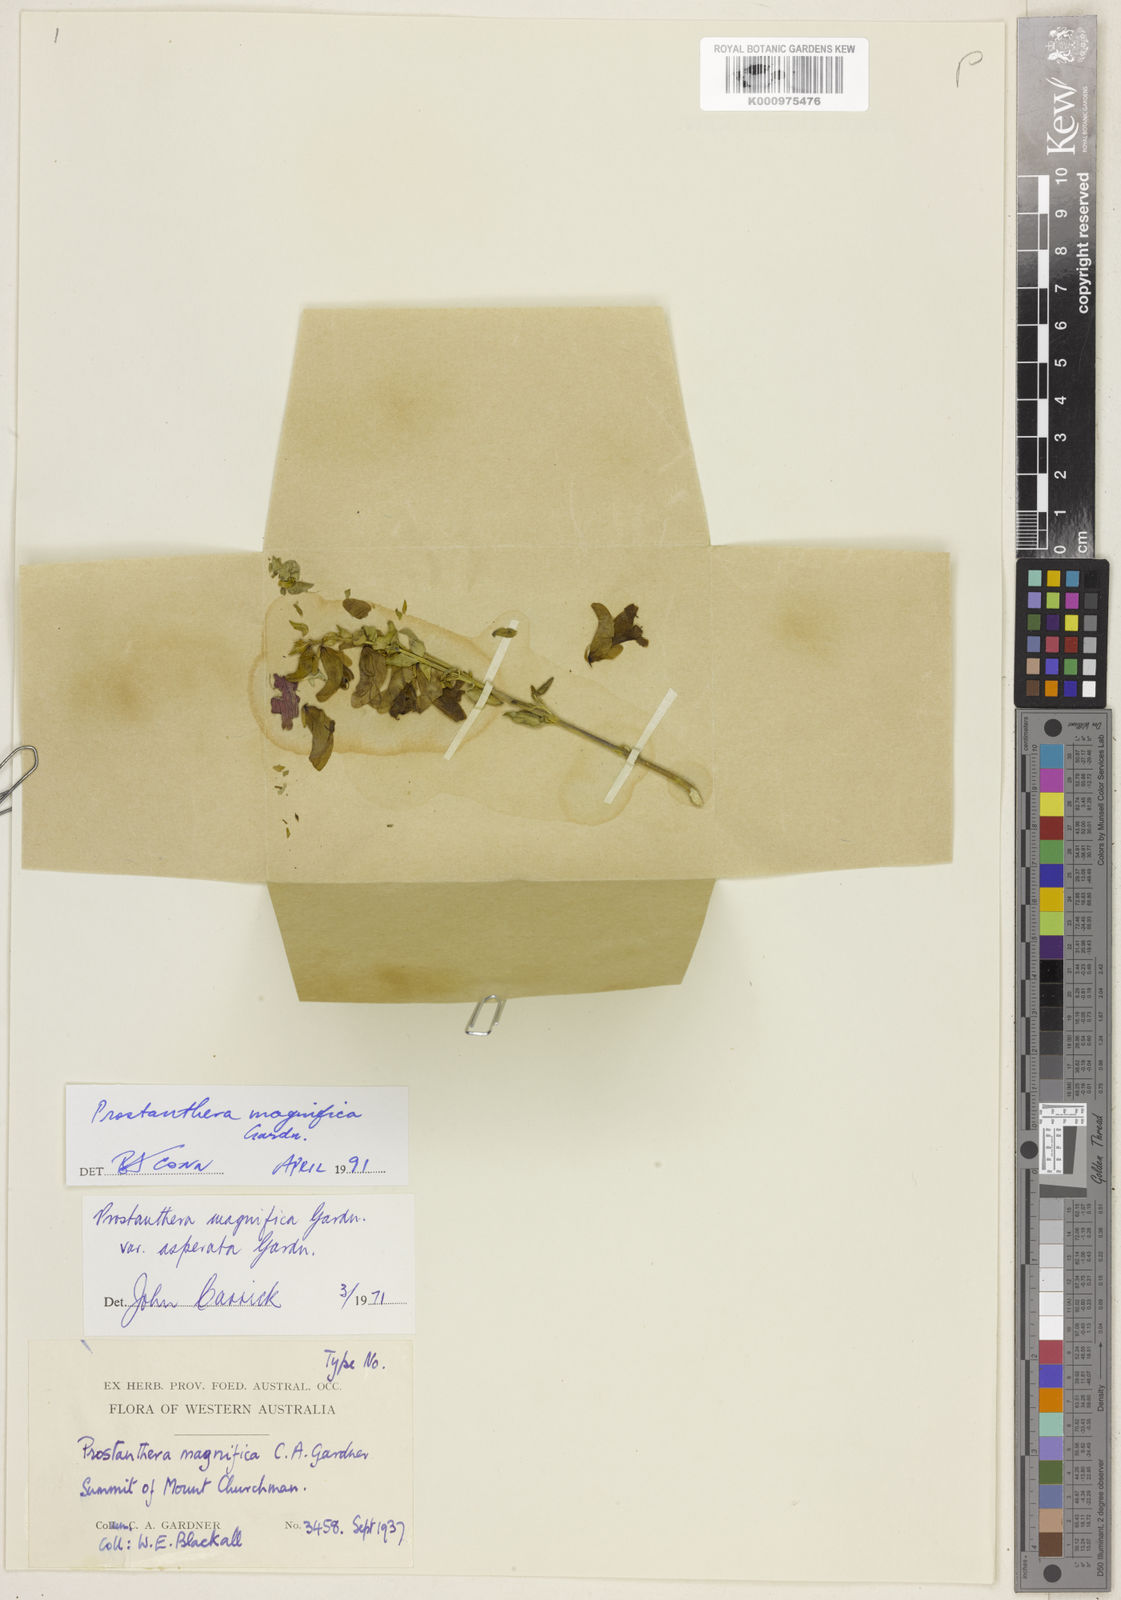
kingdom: Plantae
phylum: Tracheophyta
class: Magnoliopsida
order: Lamiales
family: Lamiaceae
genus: Prostanthera
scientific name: Prostanthera magnifica
